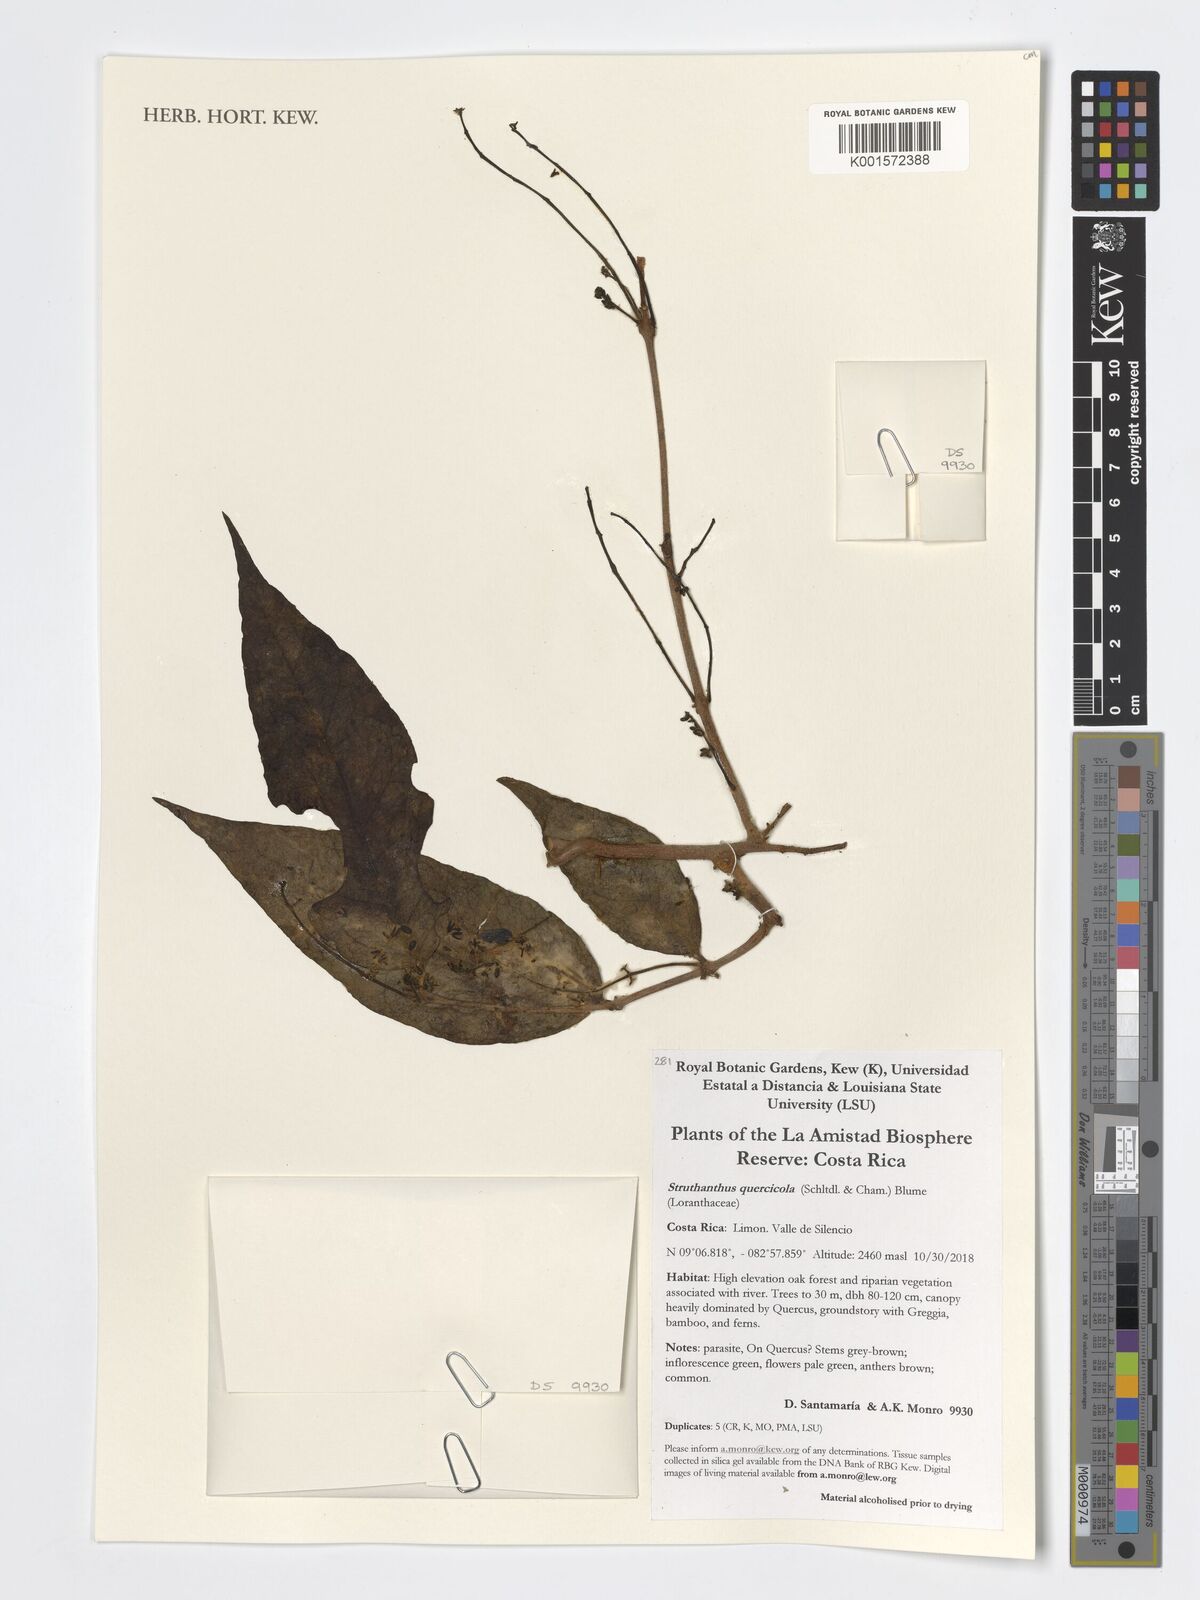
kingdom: Plantae
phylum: Tracheophyta
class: Magnoliopsida
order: Santalales
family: Loranthaceae
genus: Struthanthus
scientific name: Struthanthus quercicola
